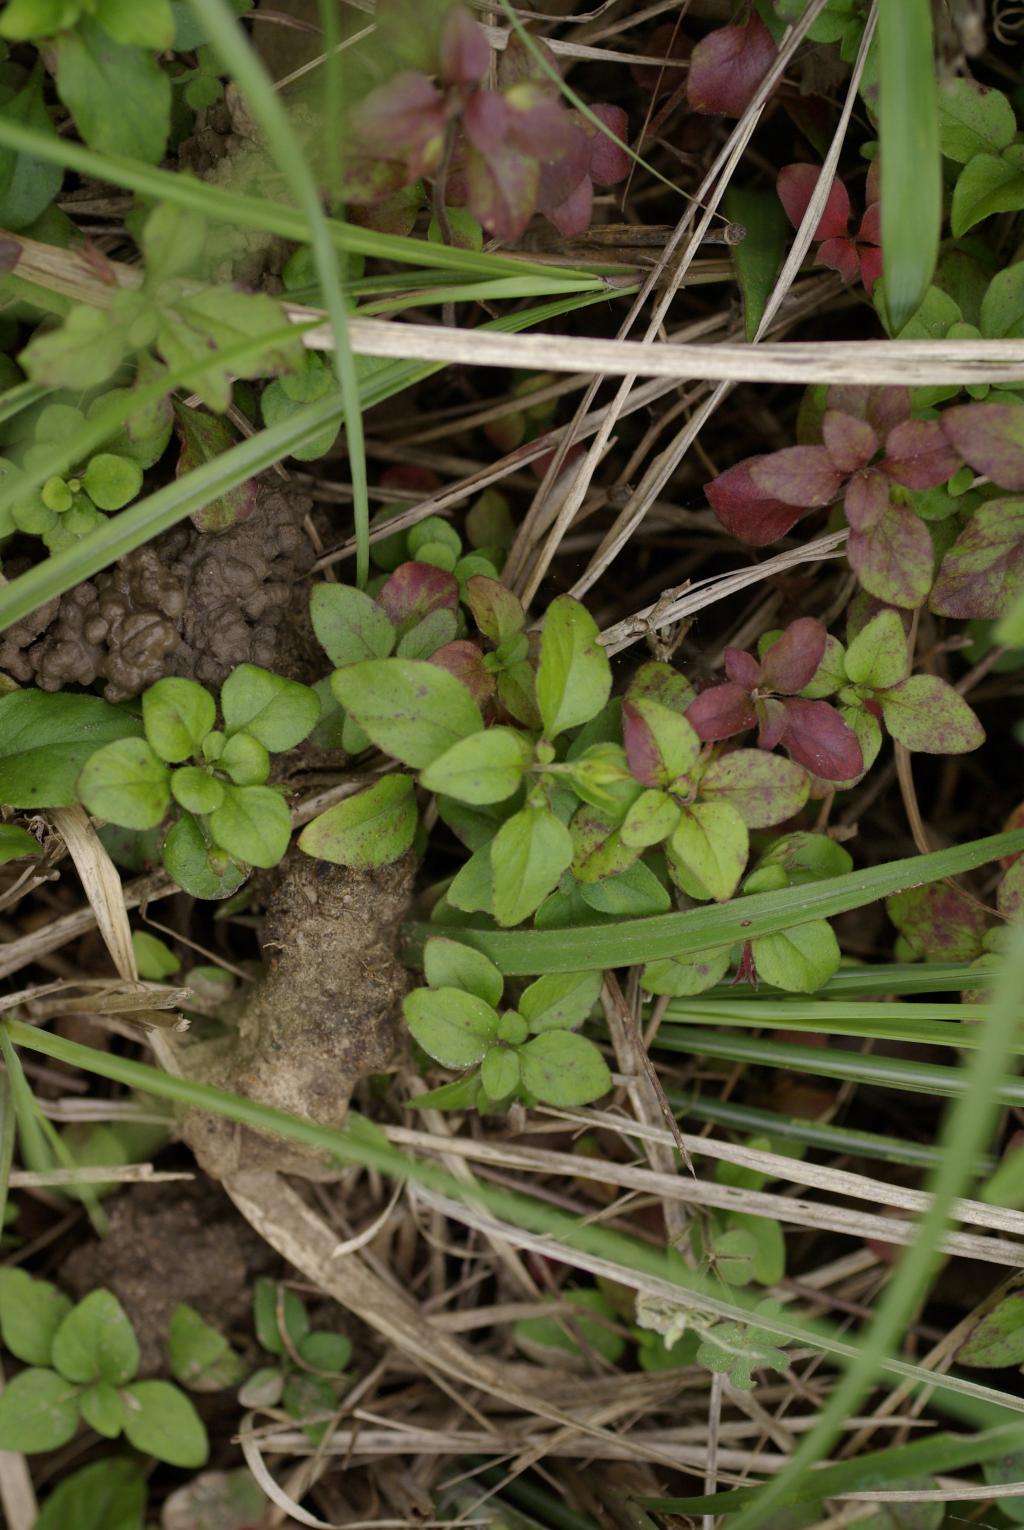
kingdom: Plantae
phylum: Tracheophyta
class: Magnoliopsida
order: Ericales
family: Primulaceae
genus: Lysimachia
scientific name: Lysimachia remota
